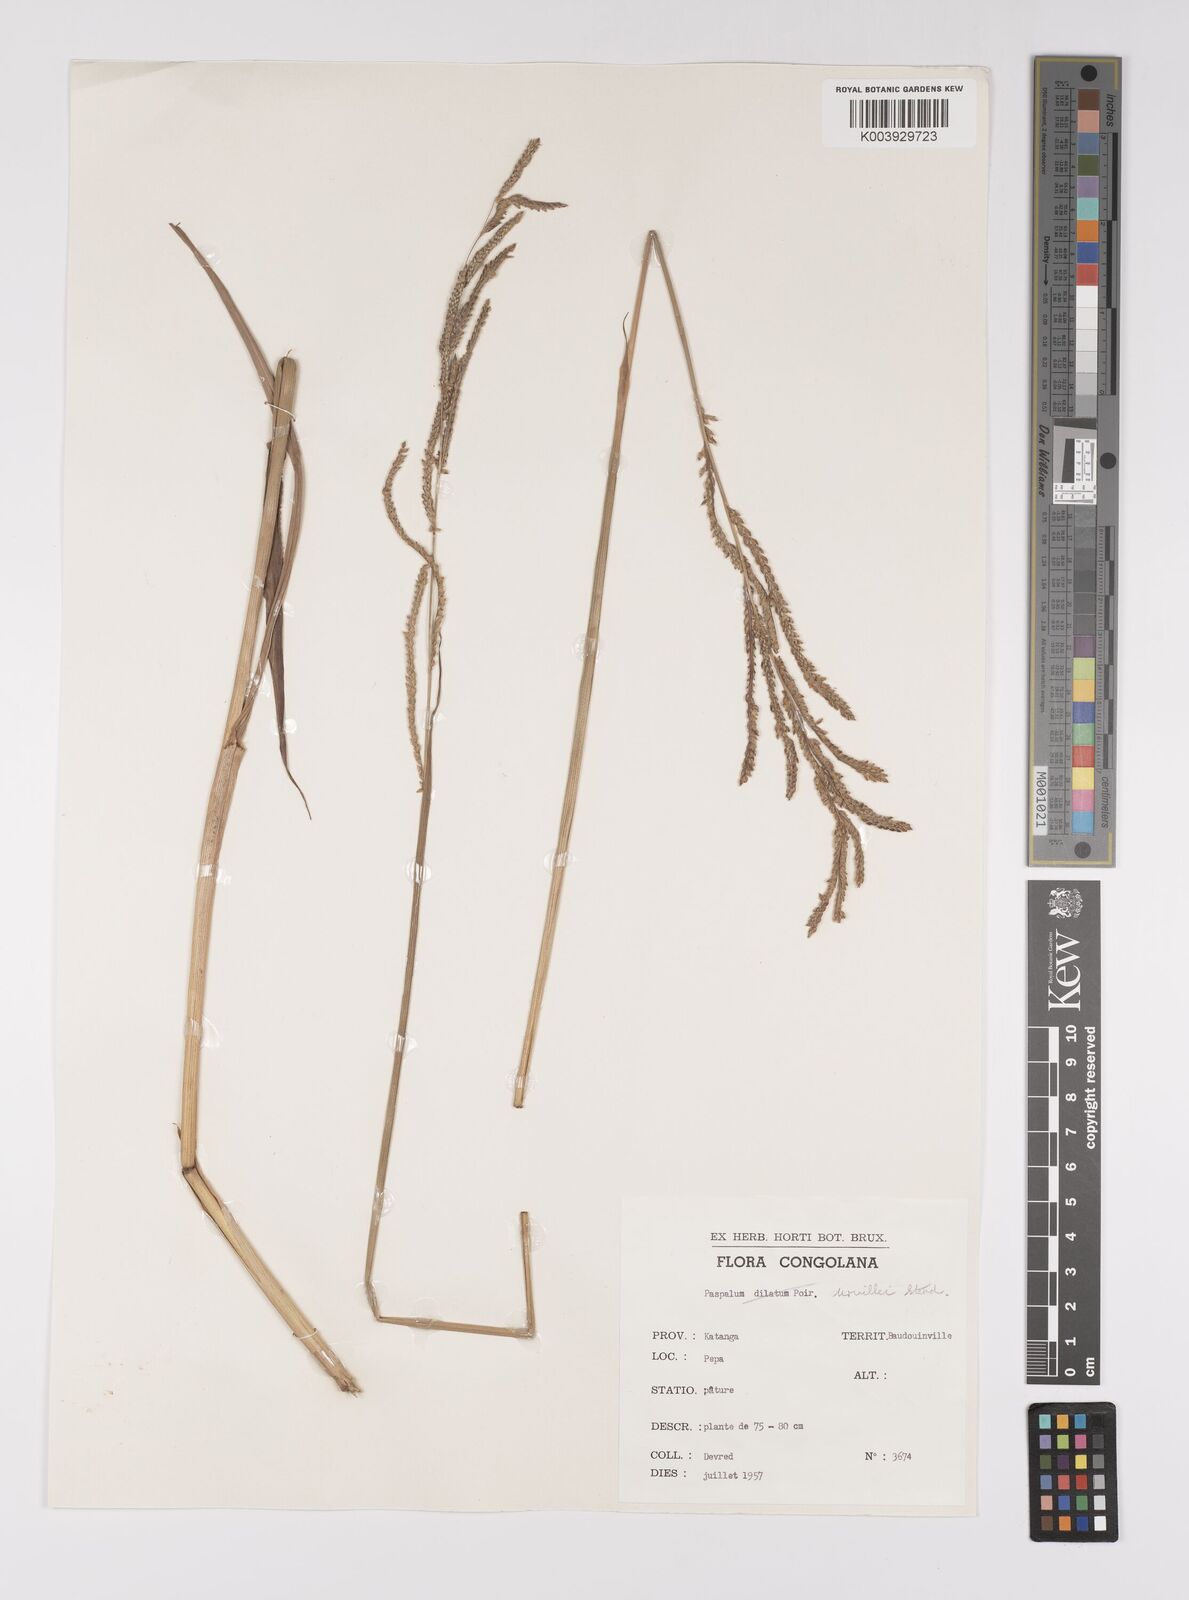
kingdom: Plantae
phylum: Tracheophyta
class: Liliopsida
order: Poales
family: Poaceae
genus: Paspalum
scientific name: Paspalum urvillei
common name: Vasey's grass
